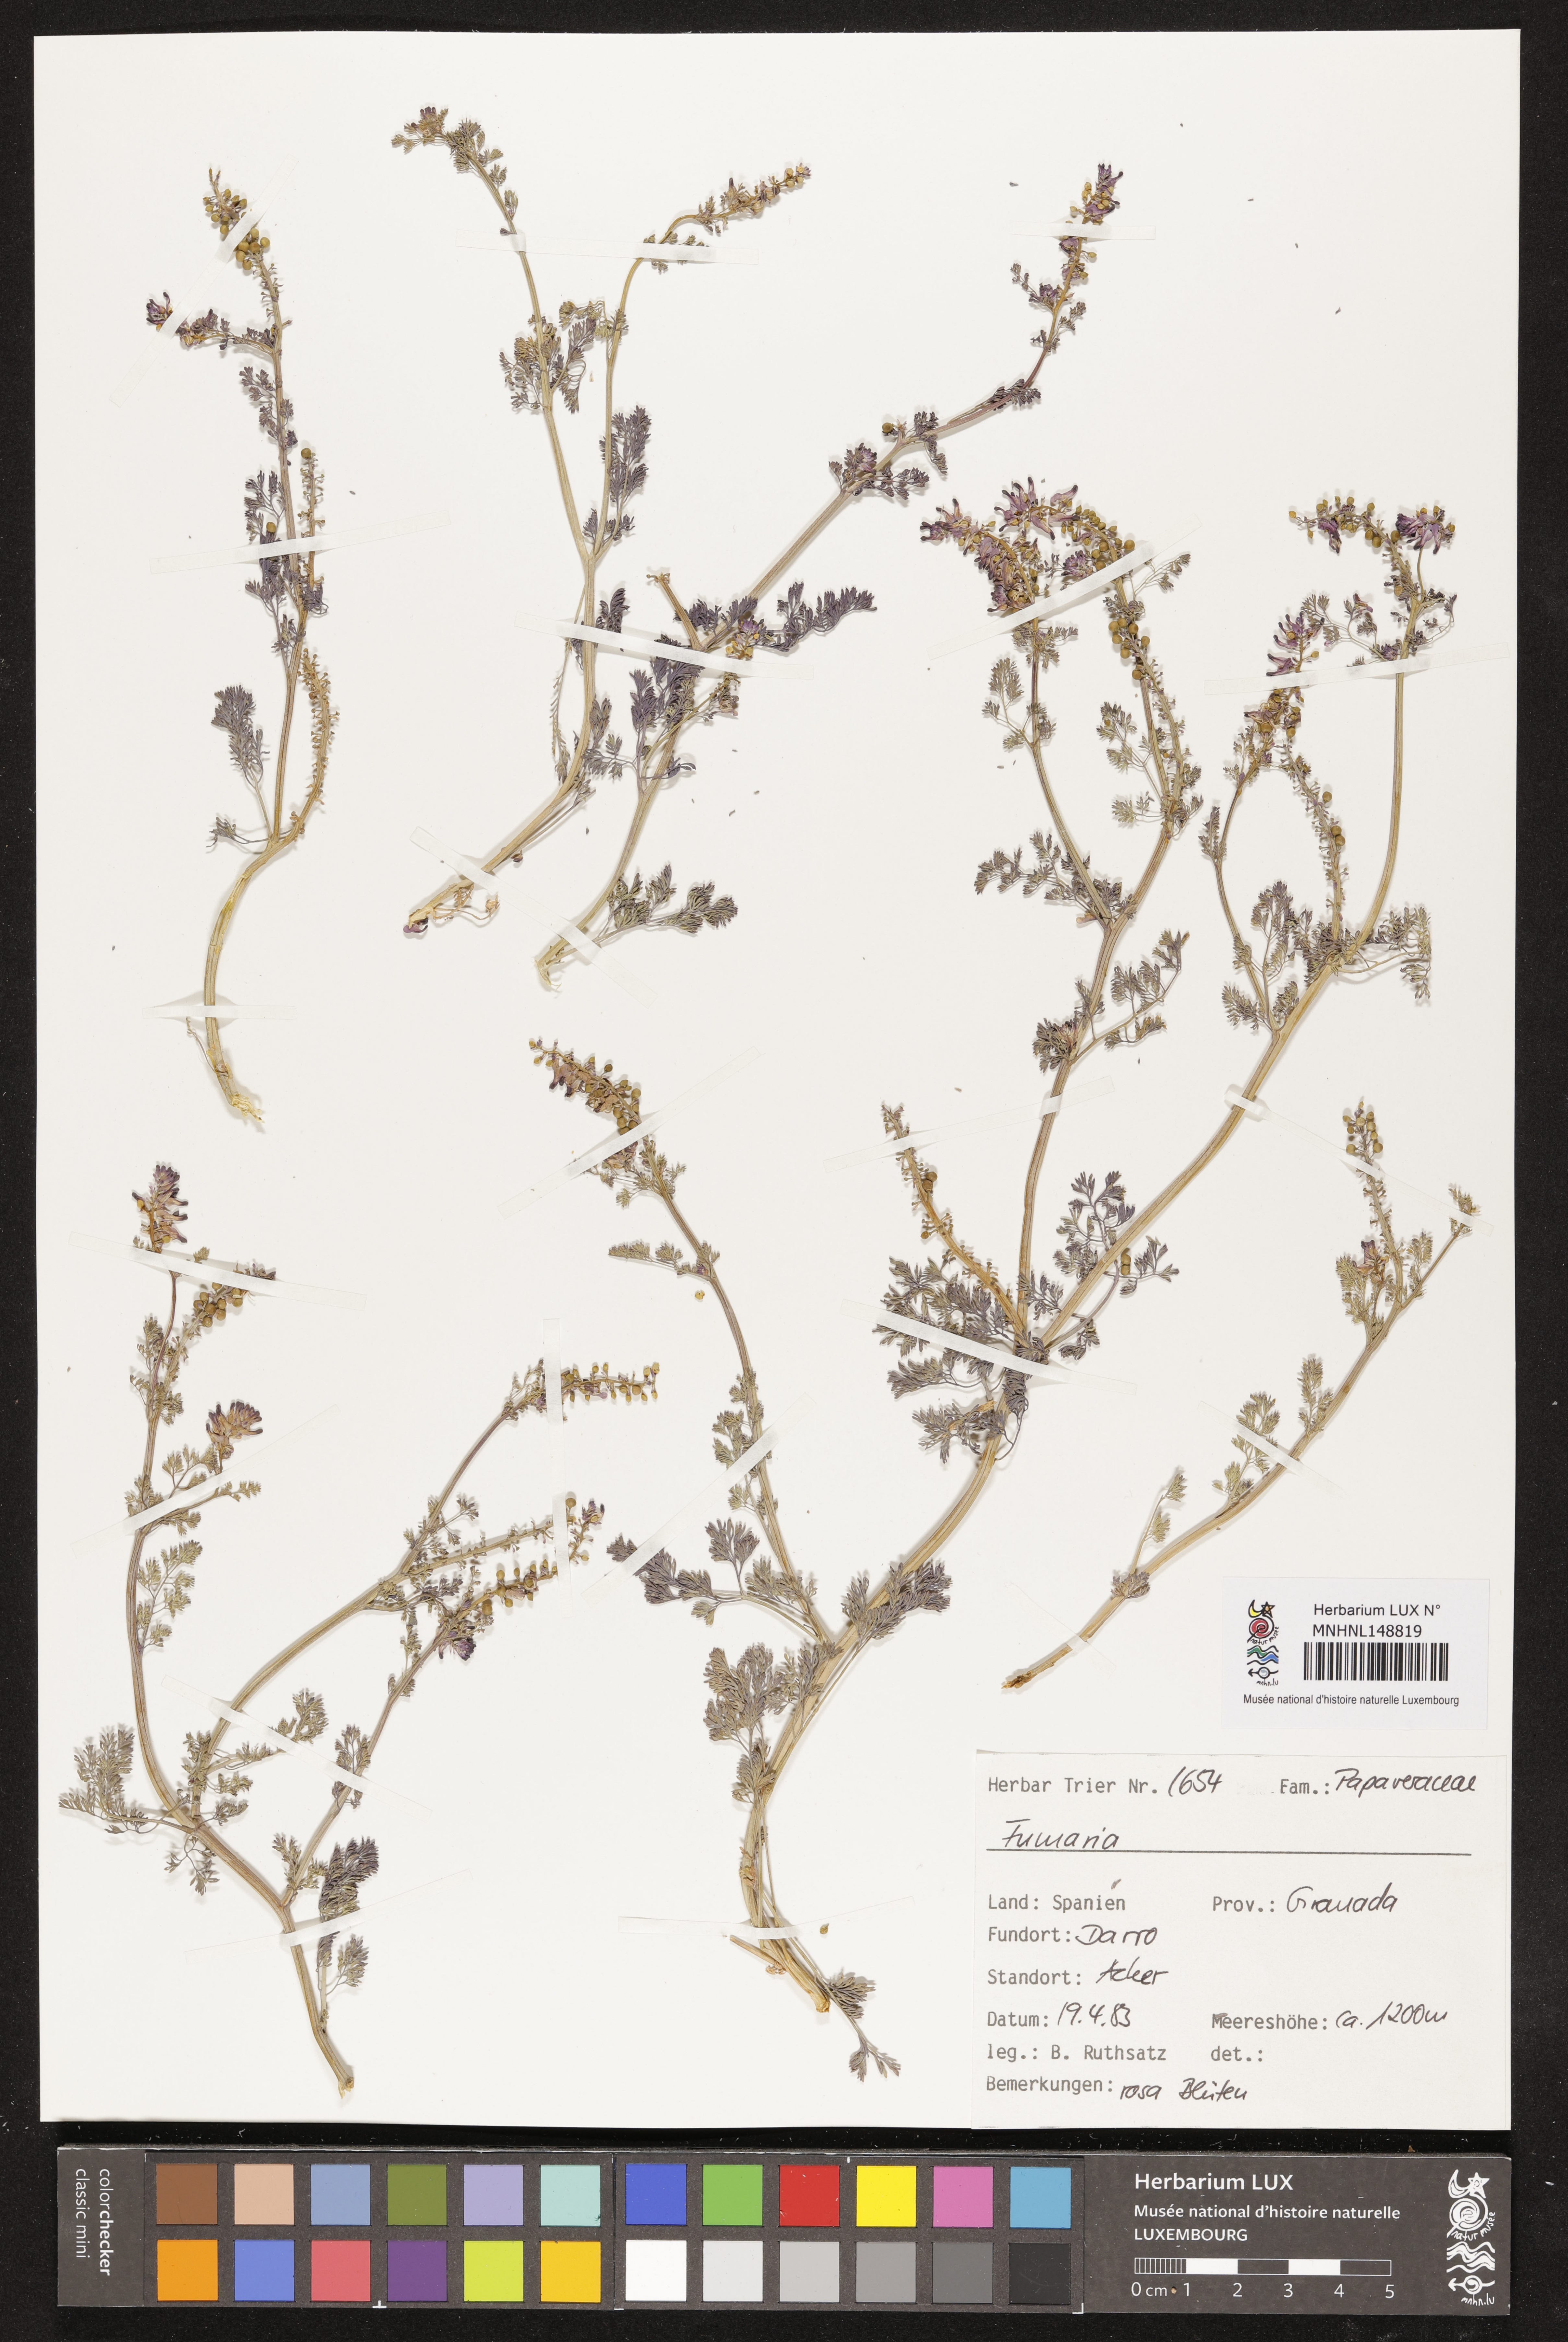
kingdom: Plantae
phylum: Tracheophyta
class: Magnoliopsida
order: Ranunculales
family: Papaveraceae
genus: Fumaria
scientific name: Fumaria
